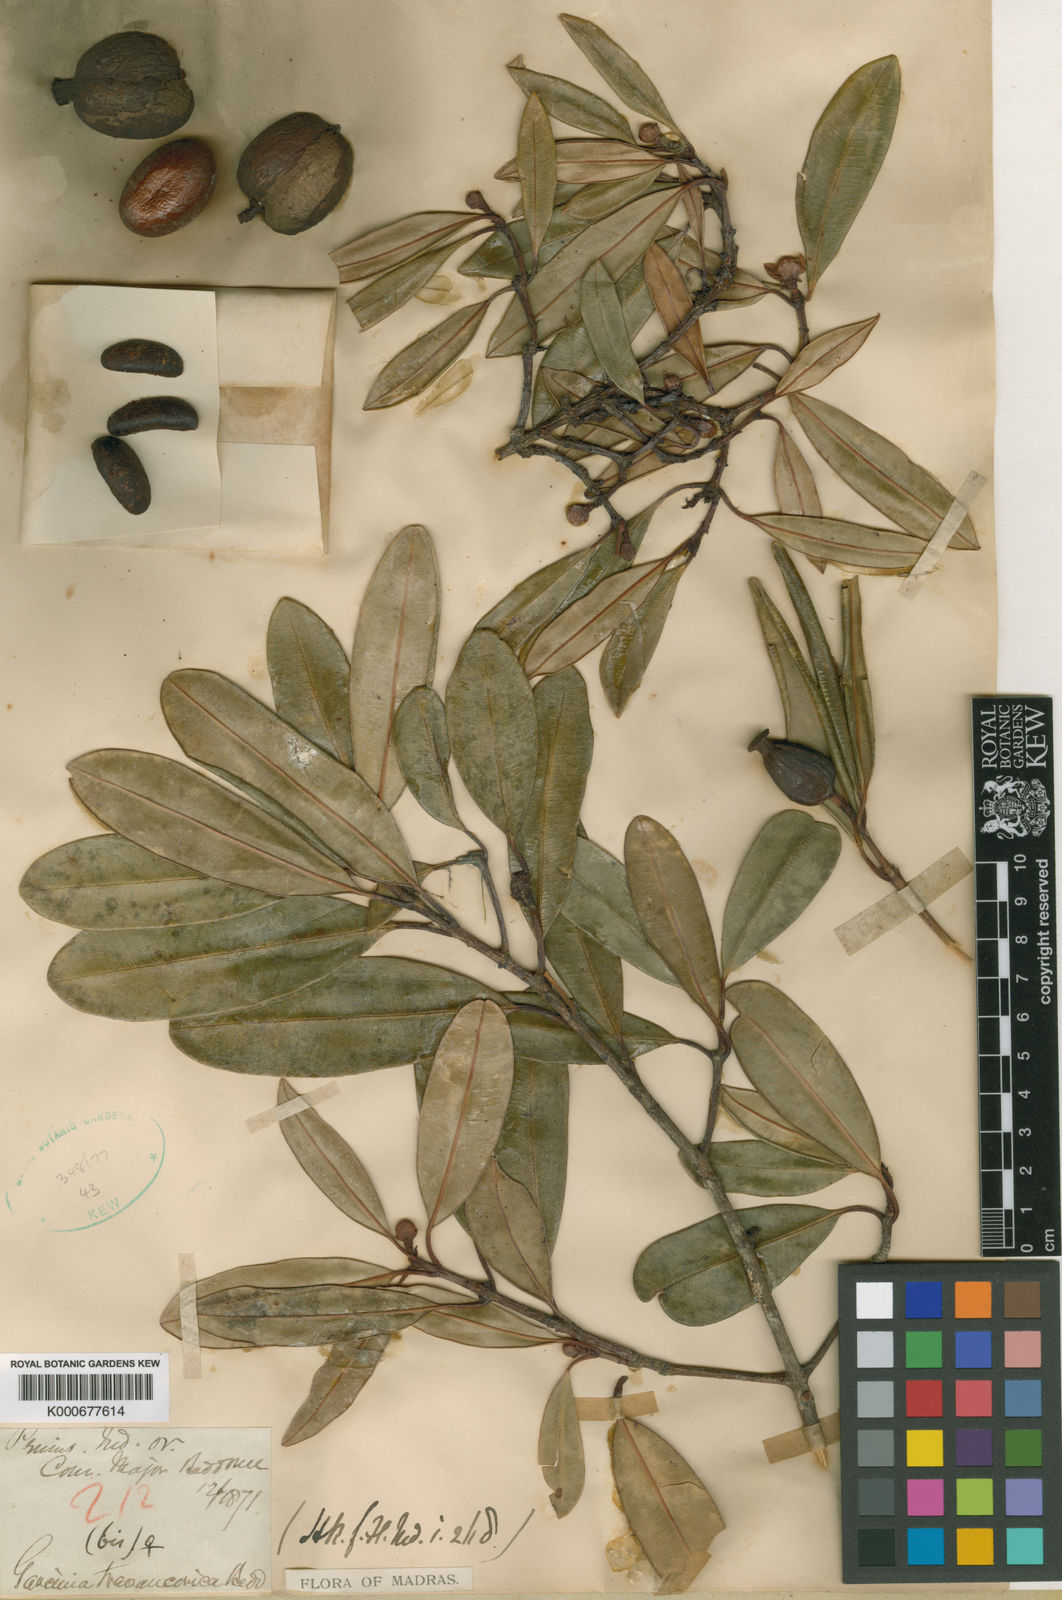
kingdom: Plantae
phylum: Tracheophyta
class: Magnoliopsida
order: Malpighiales
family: Clusiaceae
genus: Garcinia
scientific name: Garcinia travancorica
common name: Travancore gamboge
